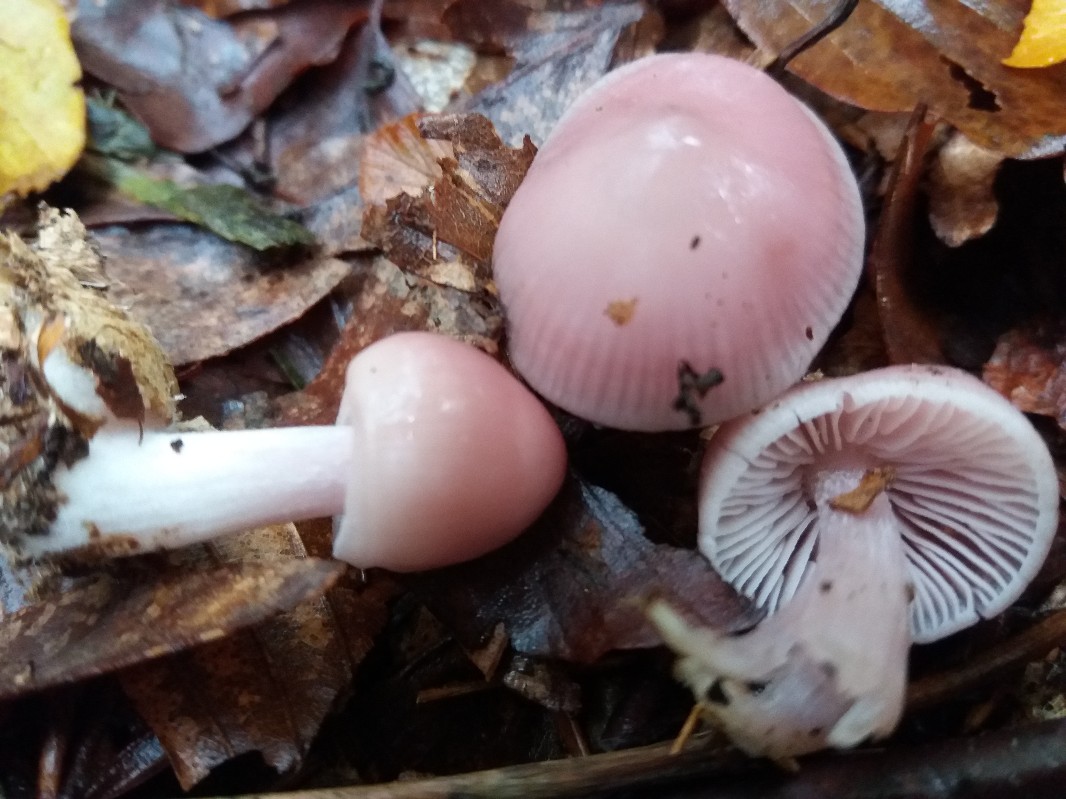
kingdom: Fungi
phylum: Basidiomycota
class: Agaricomycetes
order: Agaricales
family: Mycenaceae
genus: Mycena
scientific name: Mycena rosea
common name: rosa huesvamp
